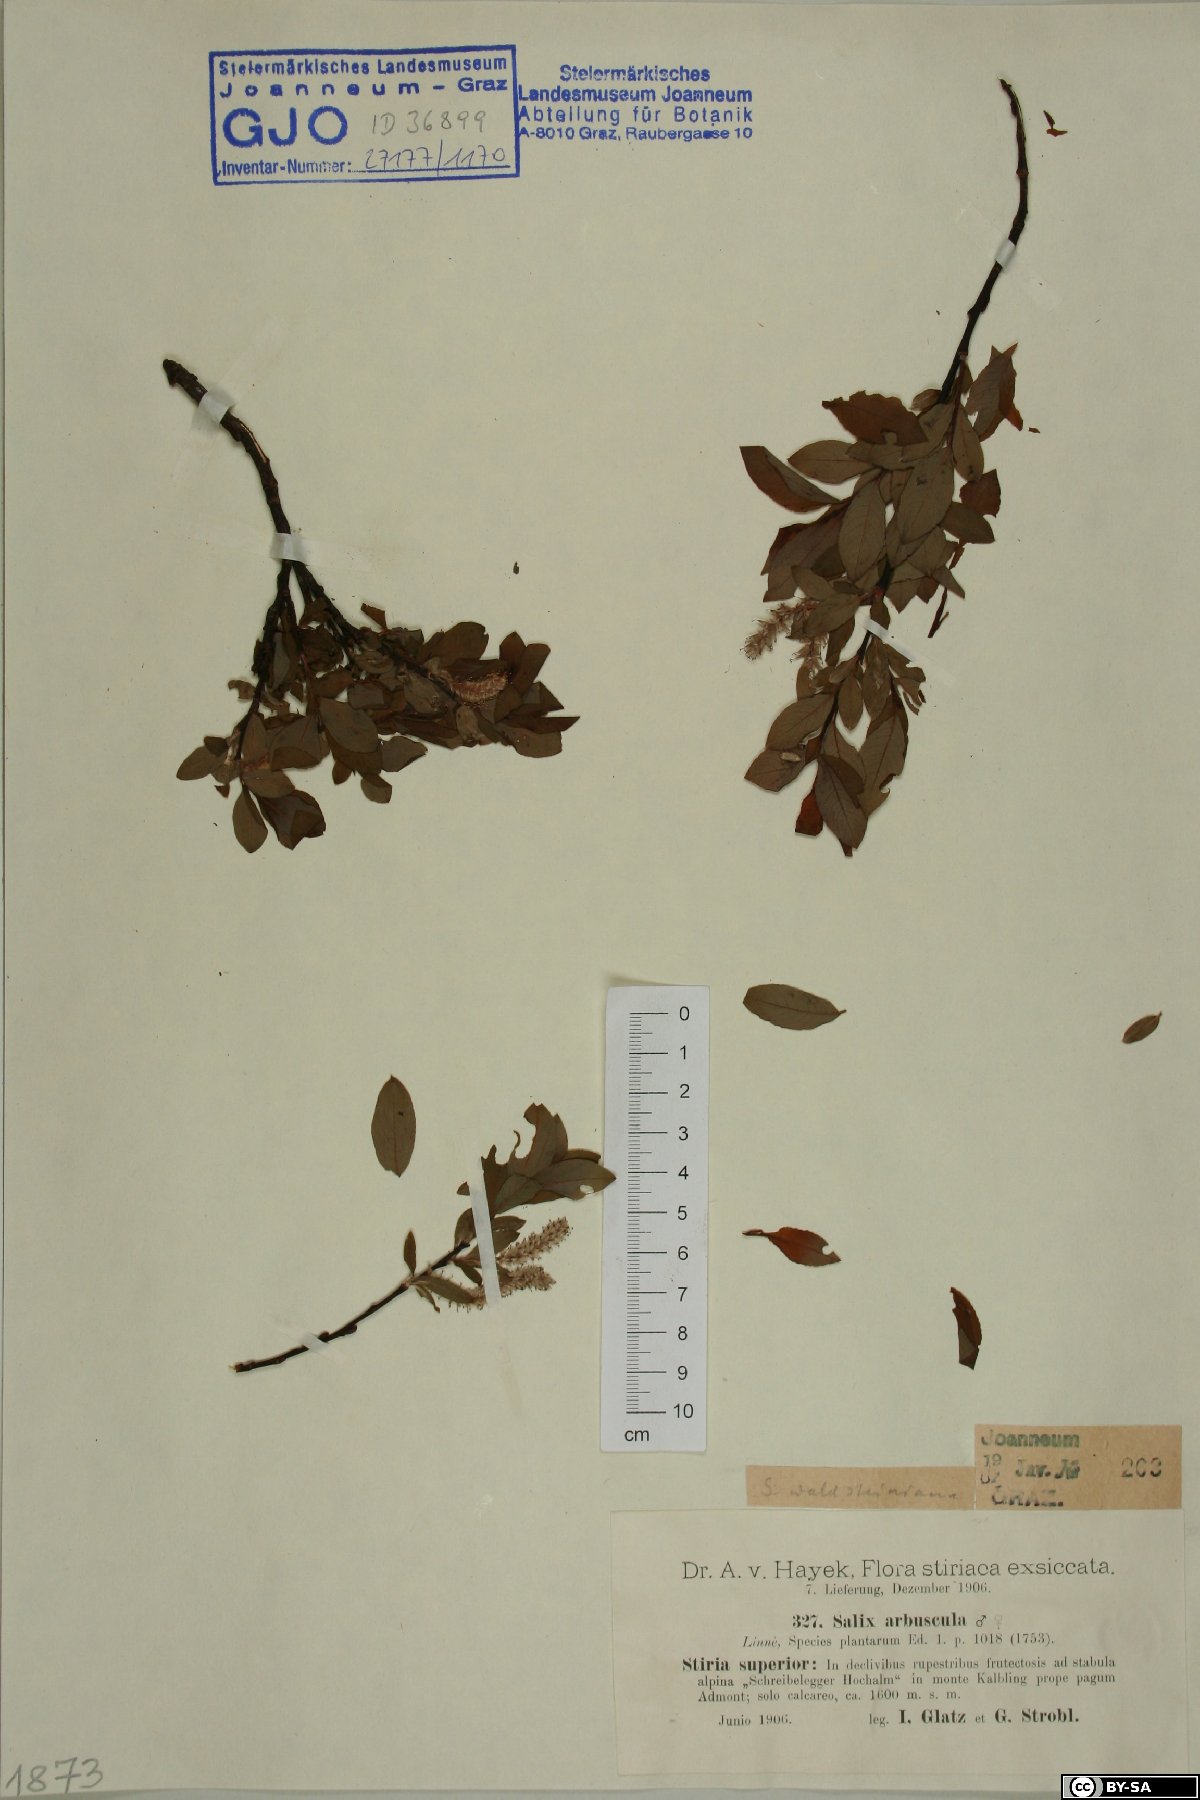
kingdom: Plantae
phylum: Tracheophyta
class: Magnoliopsida
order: Malpighiales
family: Salicaceae
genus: Salix
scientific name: Salix waldsteiniana
